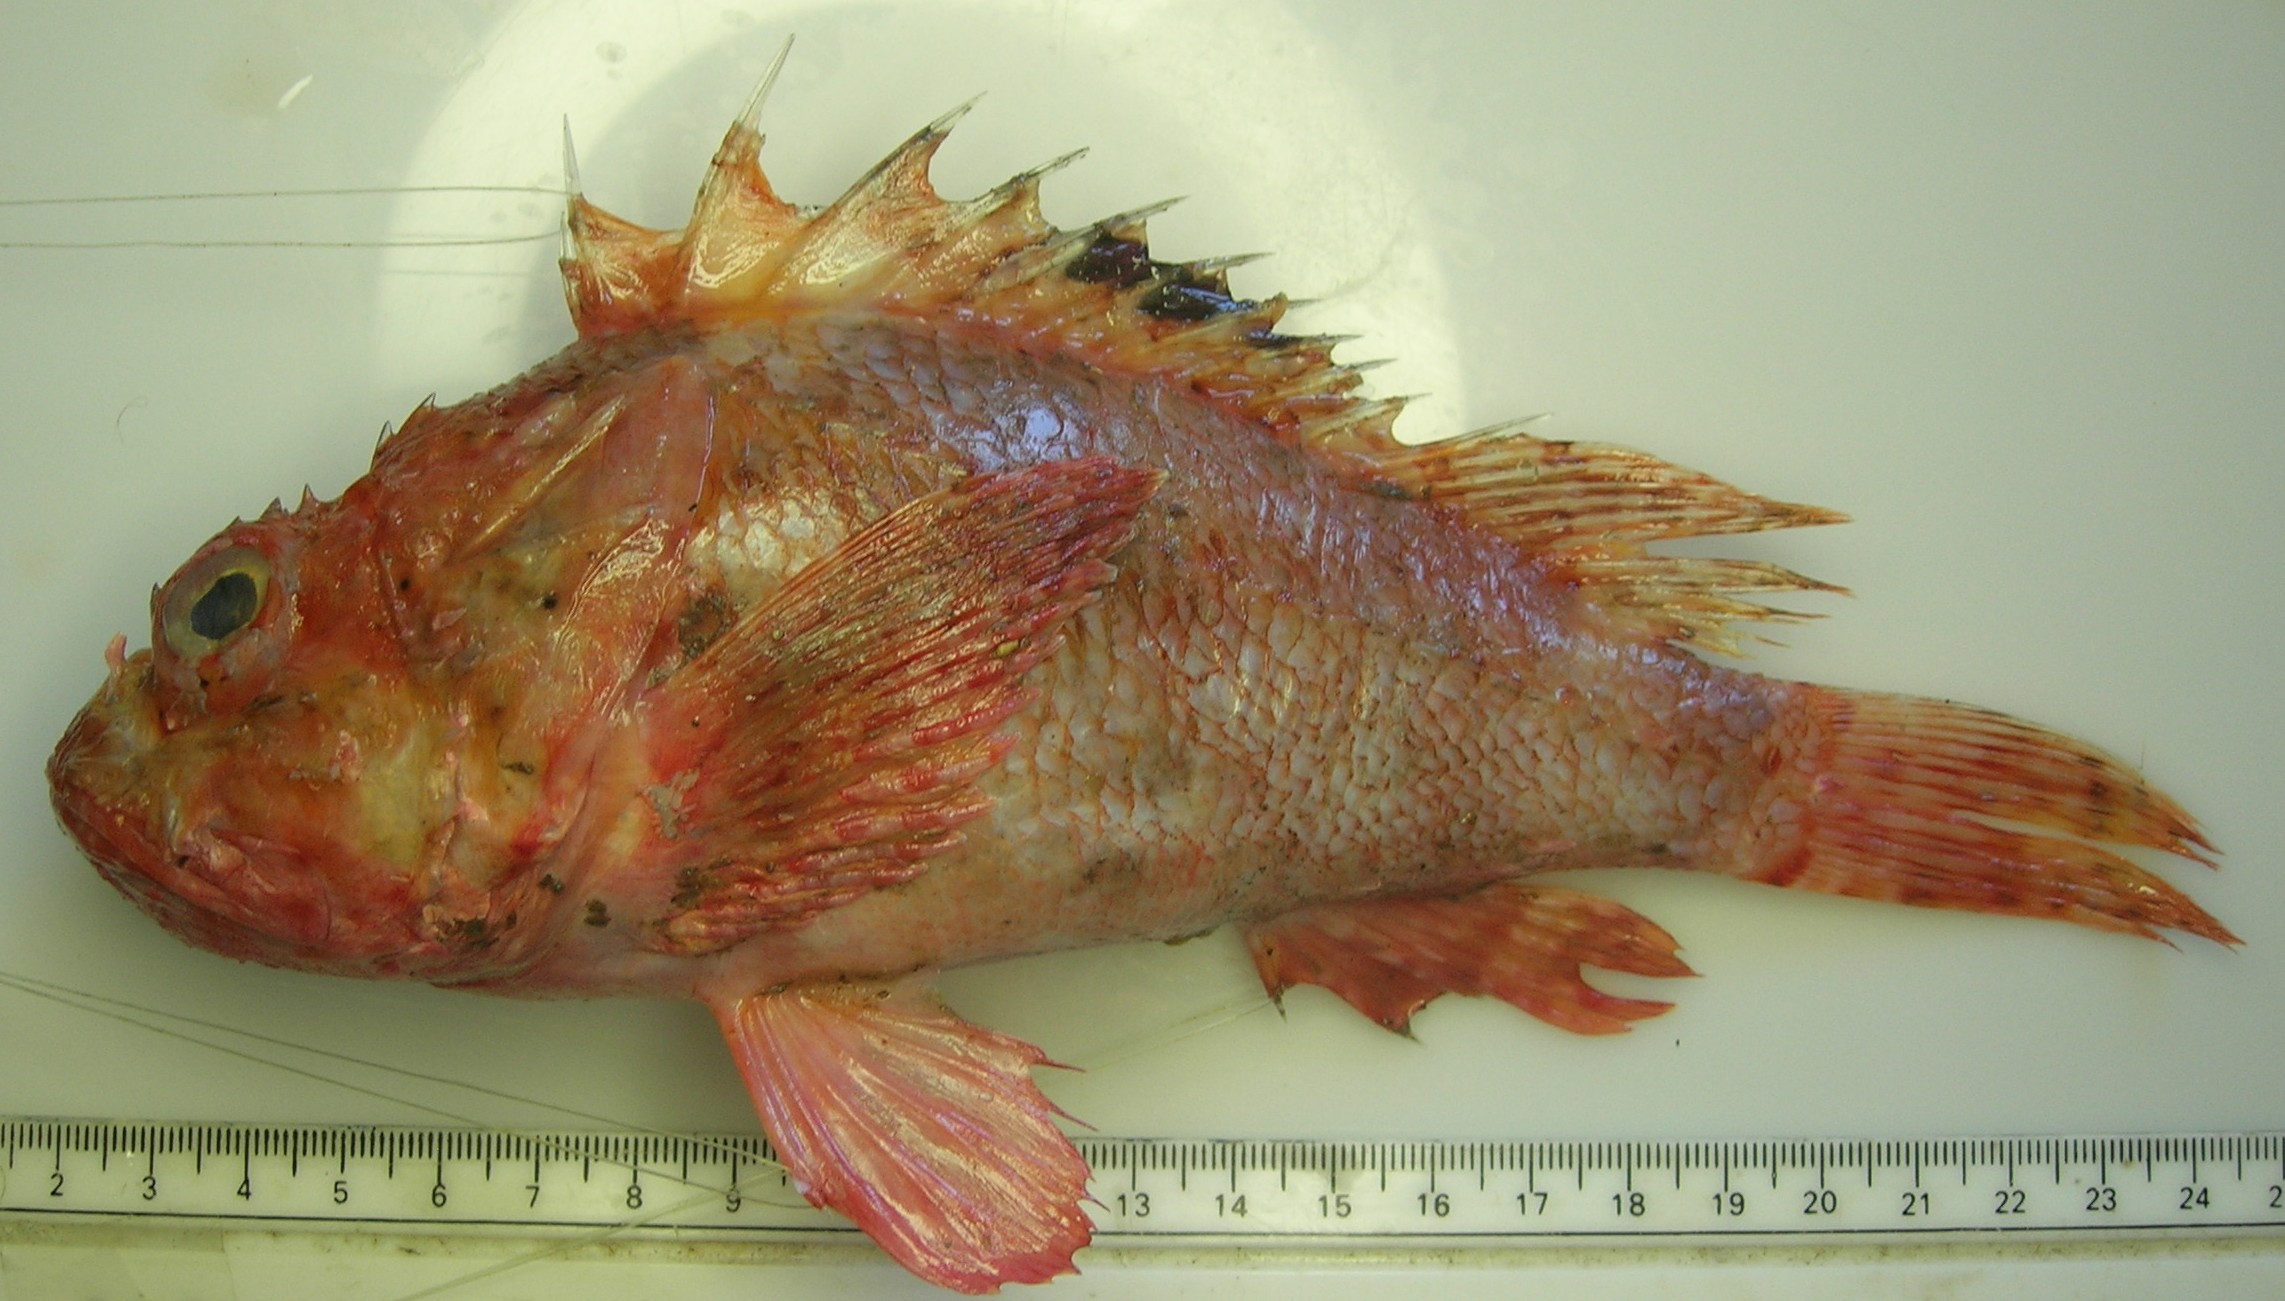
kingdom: Animalia
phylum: Chordata
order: Scorpaeniformes
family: Scorpaenidae
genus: Scorpaena
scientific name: Scorpaena scrofa
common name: Red scorpionfish
